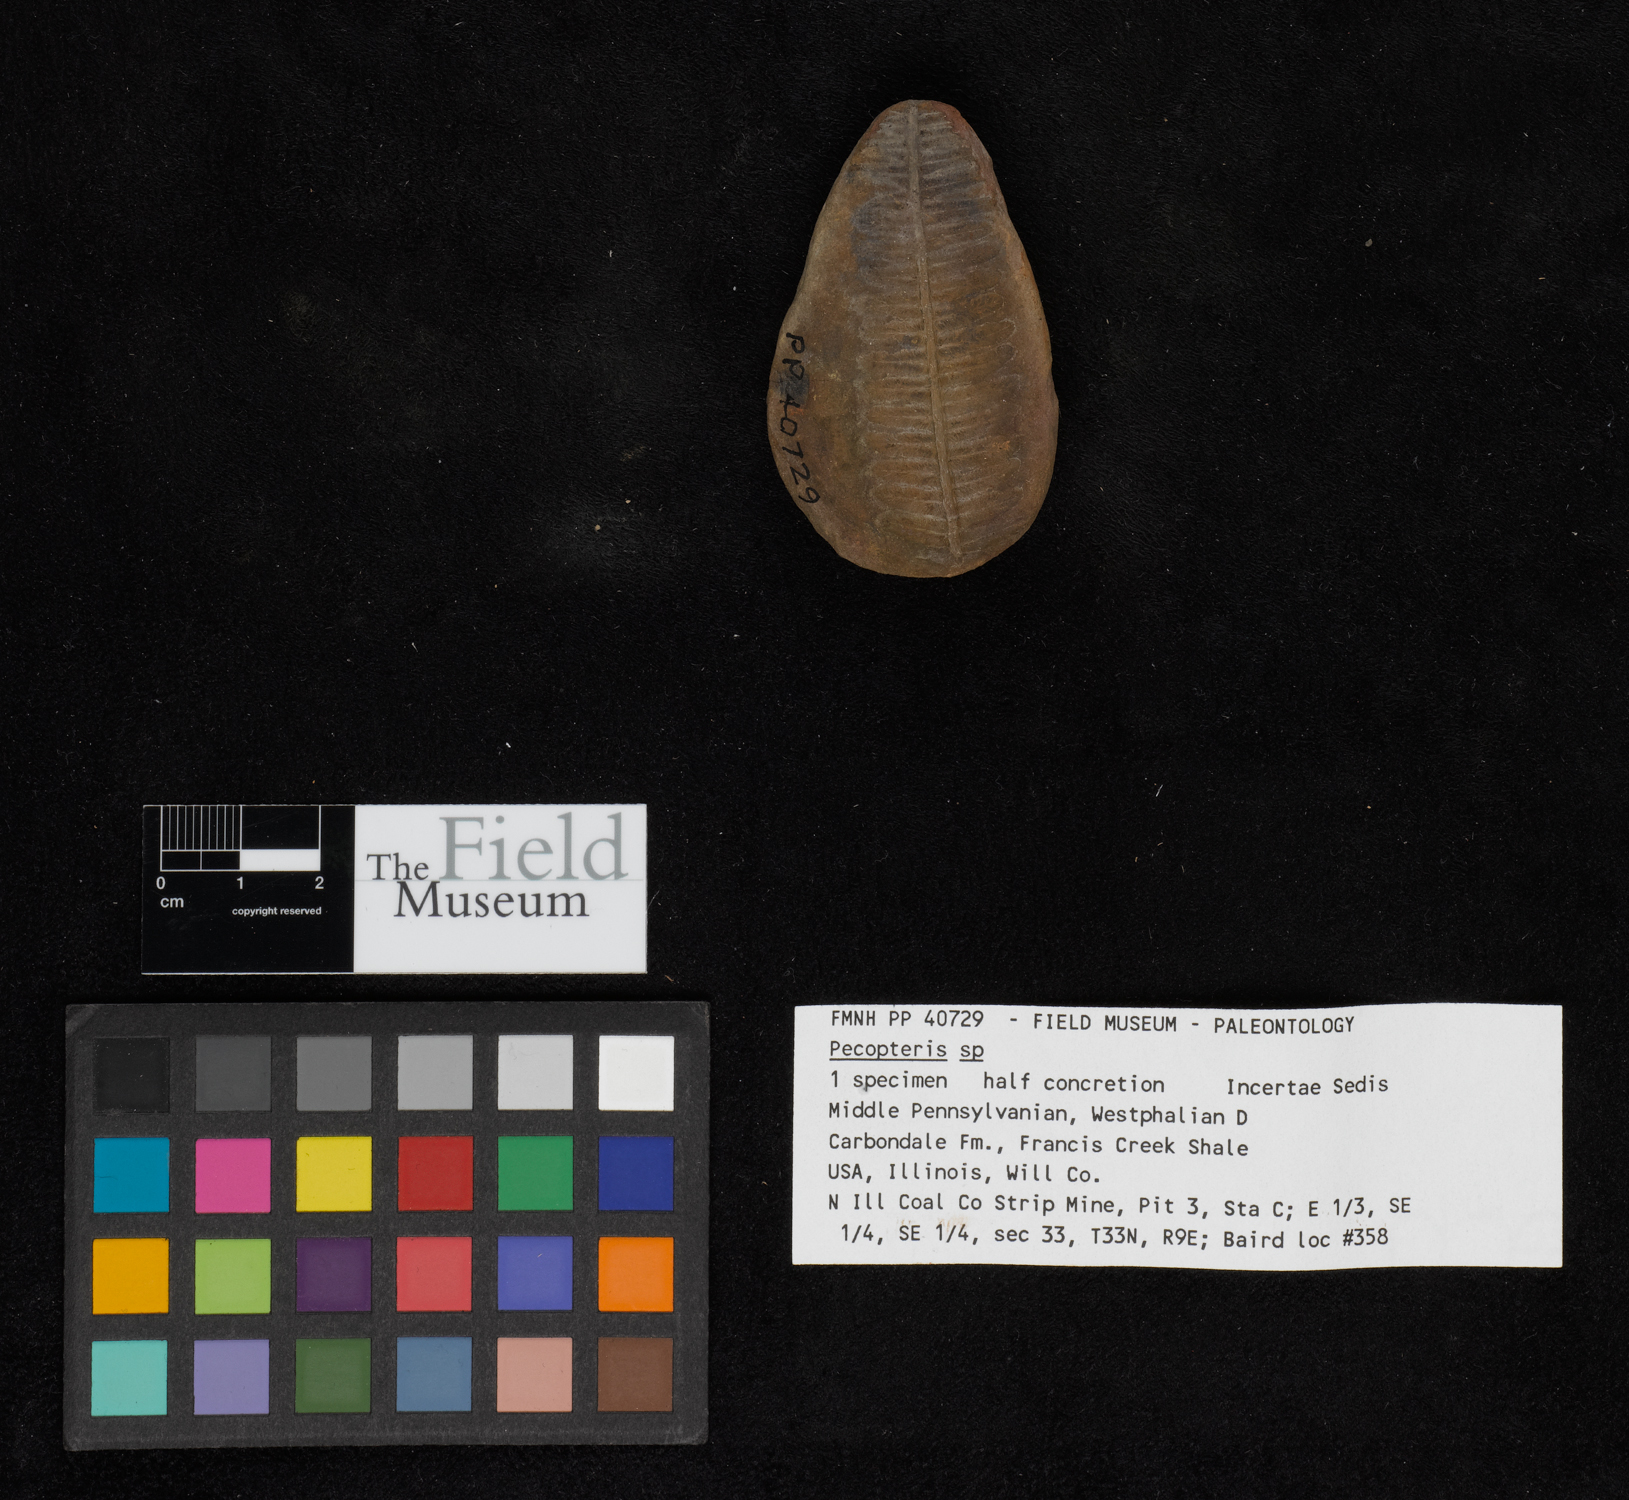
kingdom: Plantae
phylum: Tracheophyta
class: Polypodiopsida
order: Marattiales
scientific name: Marattiales
